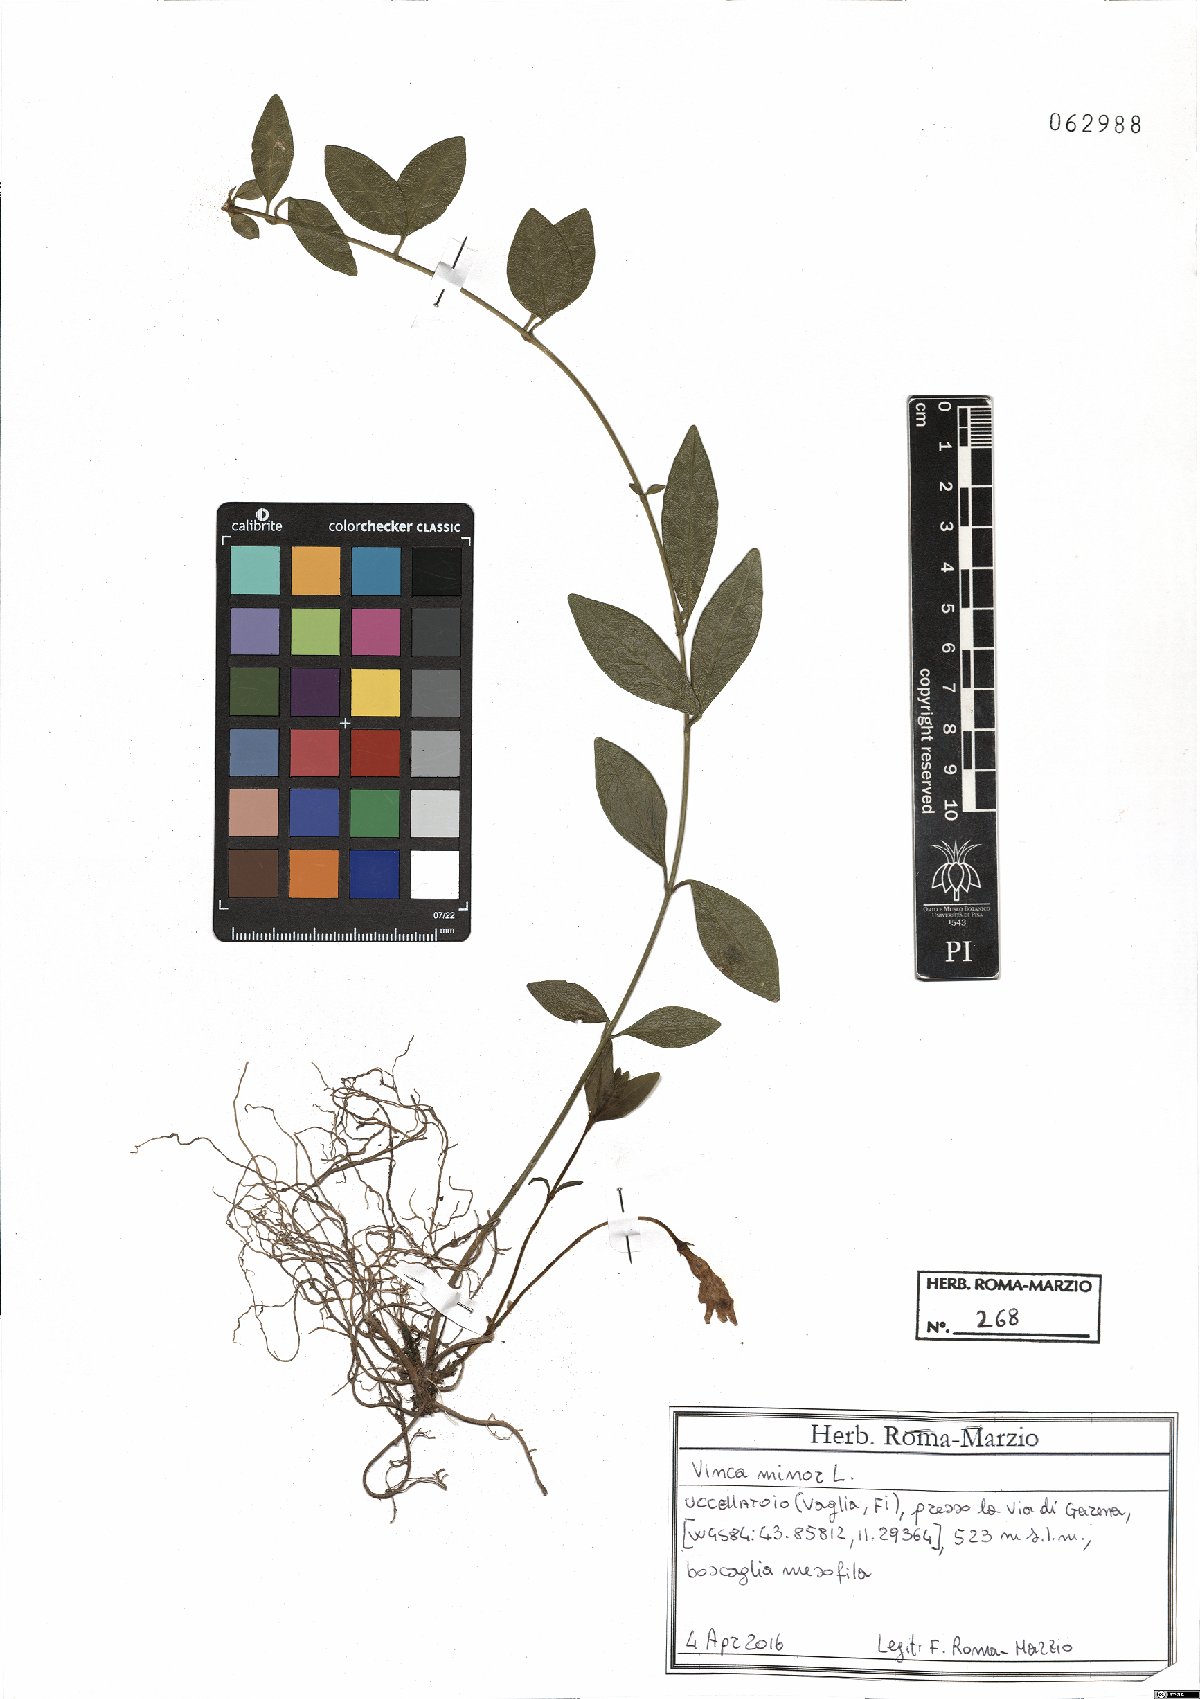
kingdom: Plantae
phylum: Tracheophyta
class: Magnoliopsida
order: Gentianales
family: Apocynaceae
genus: Vinca
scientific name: Vinca minor
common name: Lesser periwinkle
